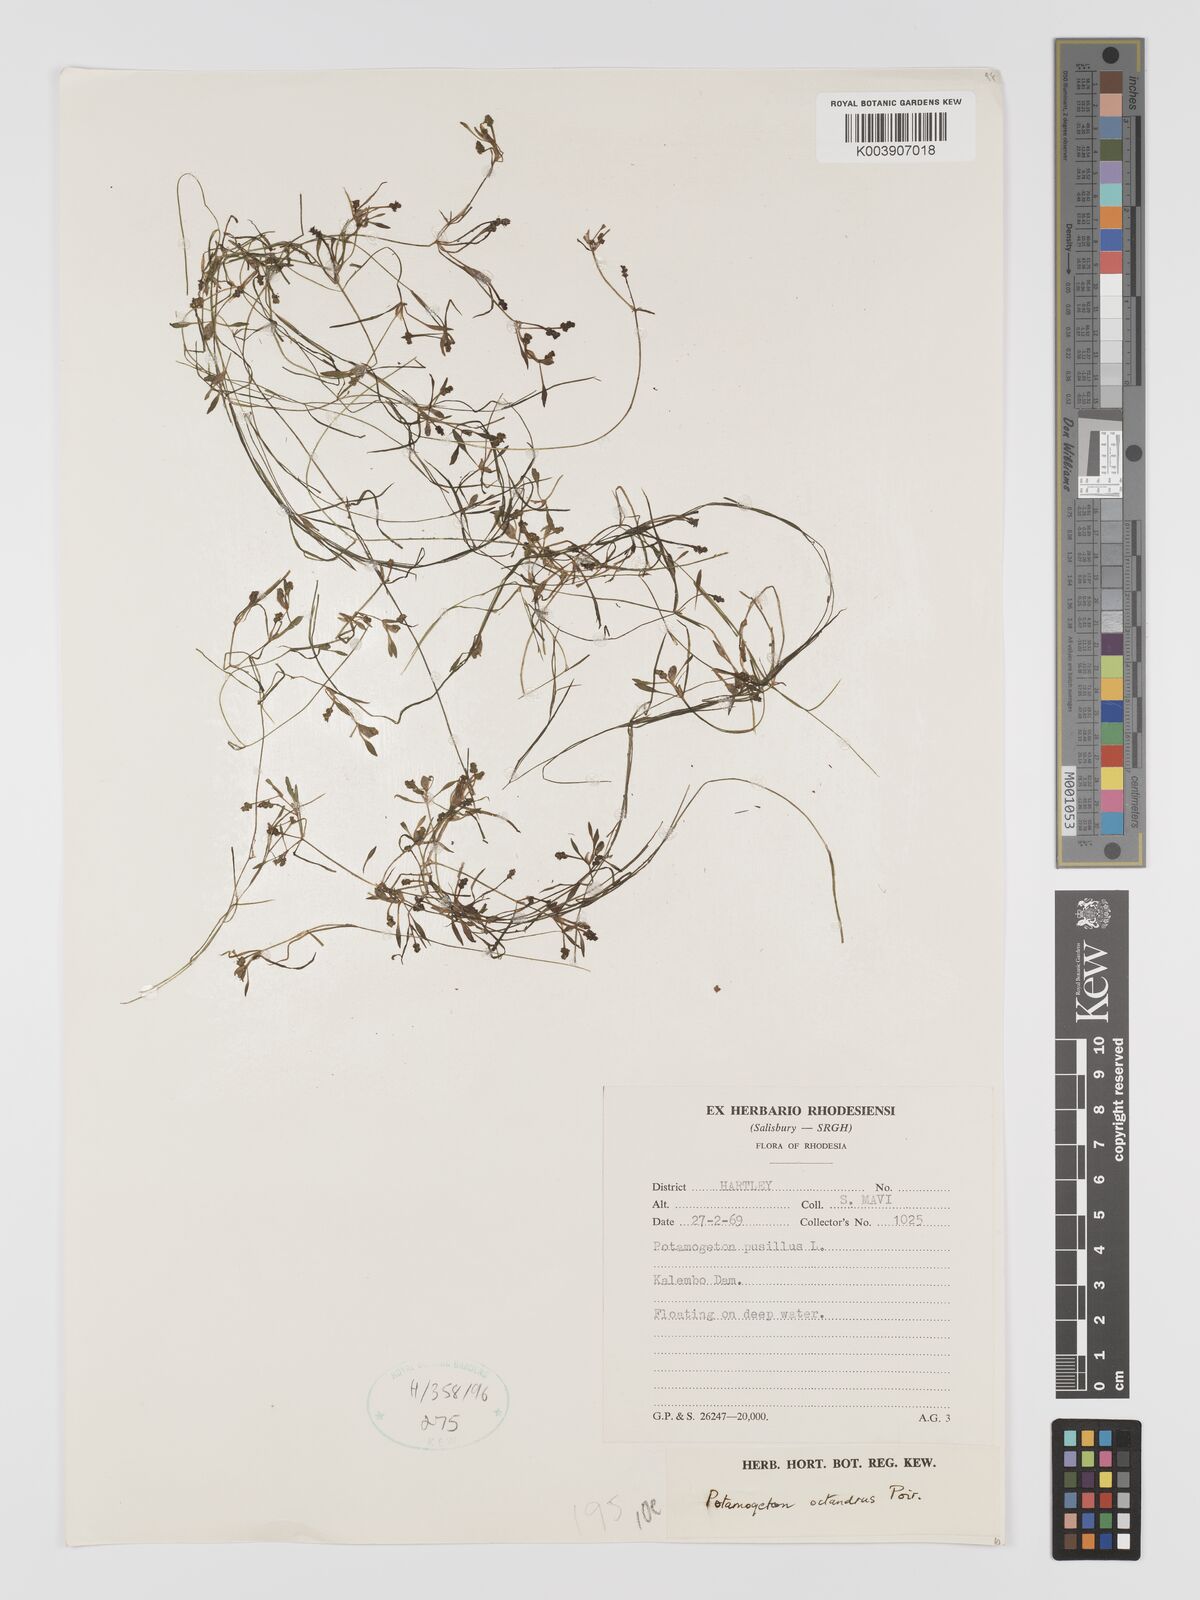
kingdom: Plantae
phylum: Tracheophyta
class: Liliopsida
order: Alismatales
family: Potamogetonaceae
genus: Potamogeton
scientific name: Potamogeton octandrus
